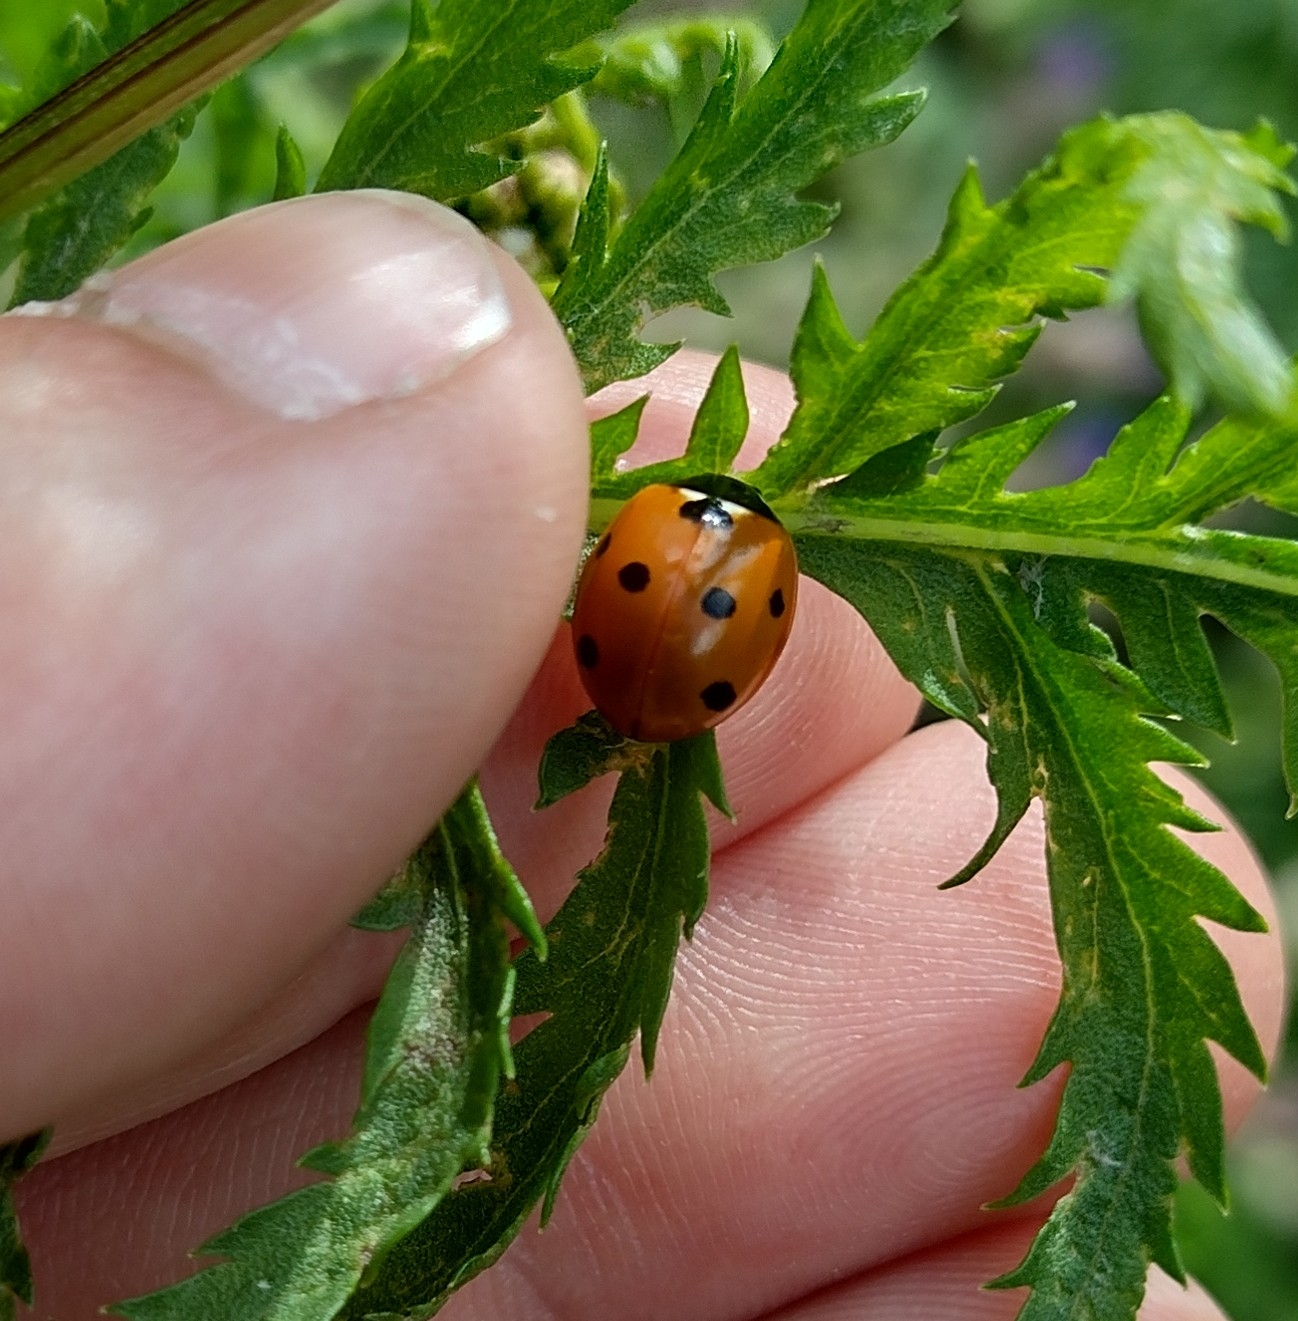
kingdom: Animalia
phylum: Arthropoda
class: Insecta
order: Coleoptera
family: Coccinellidae
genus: Coccinella
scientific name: Coccinella septempunctata
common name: Syvplettet mariehøne
